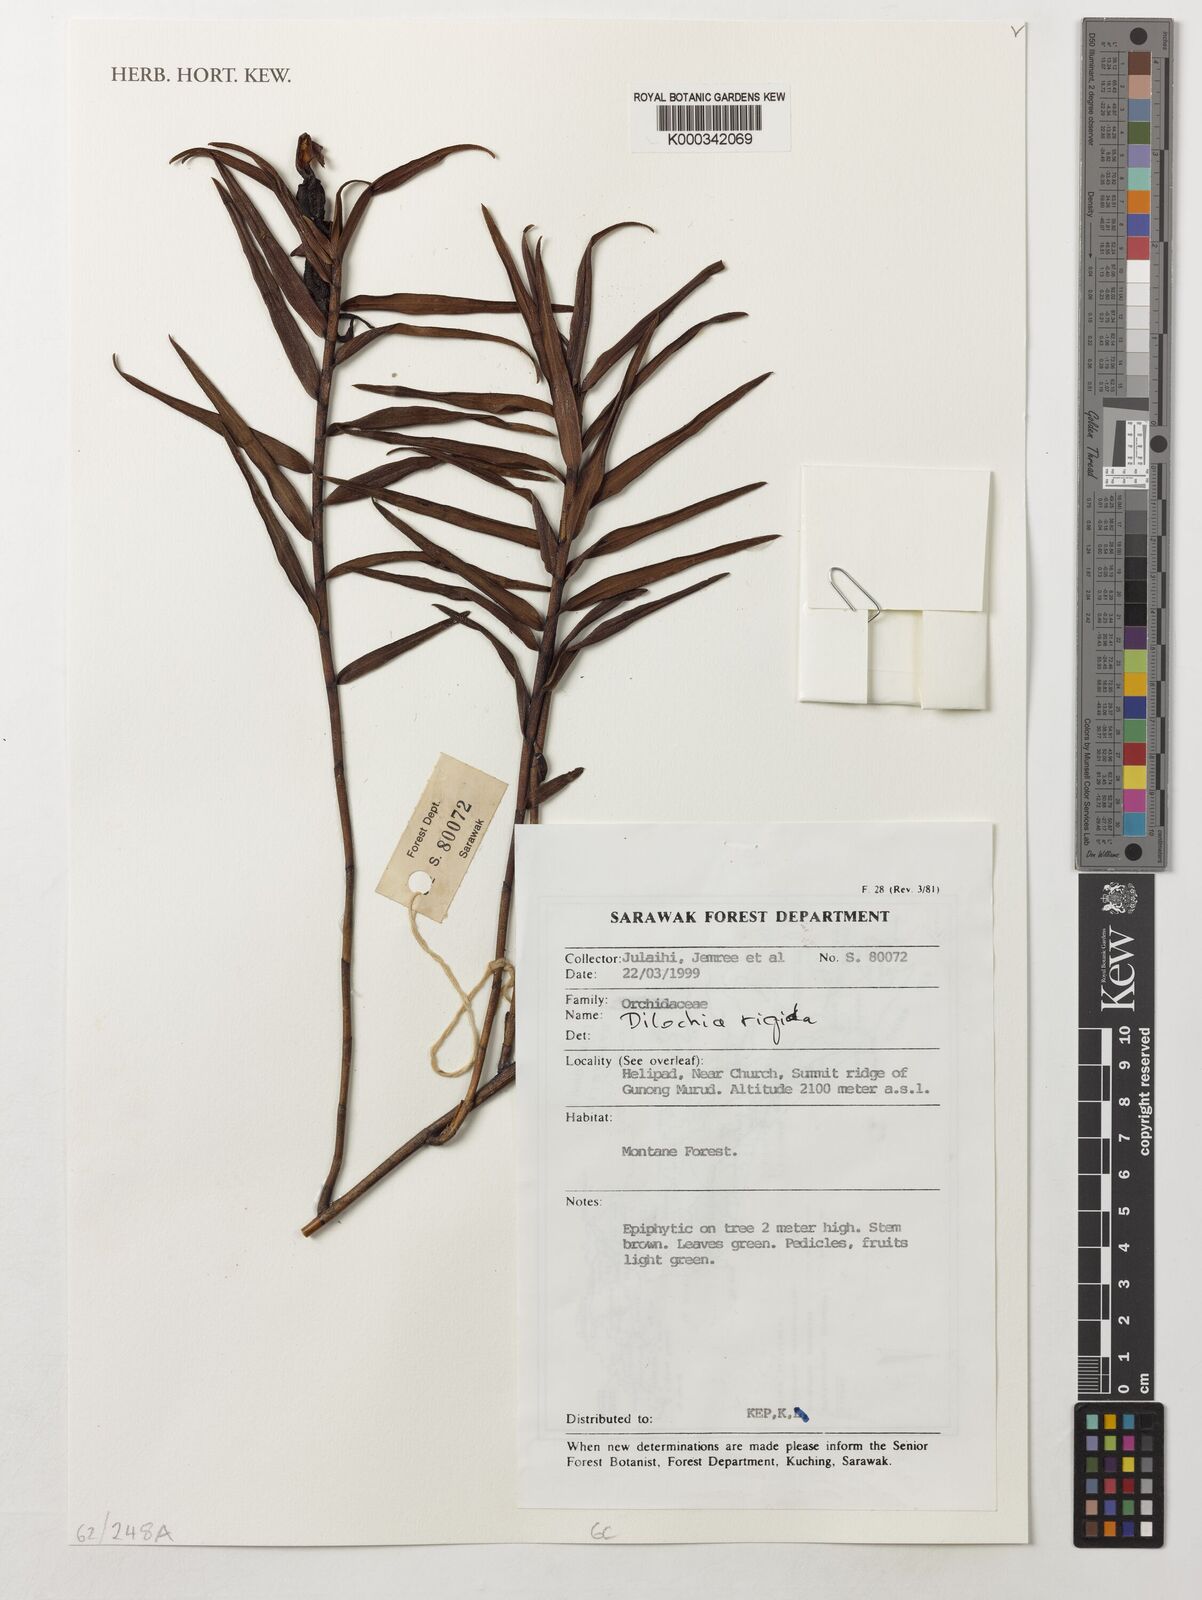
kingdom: Plantae
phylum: Tracheophyta
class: Liliopsida
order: Asparagales
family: Orchidaceae
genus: Dilochia
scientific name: Dilochia rigida
